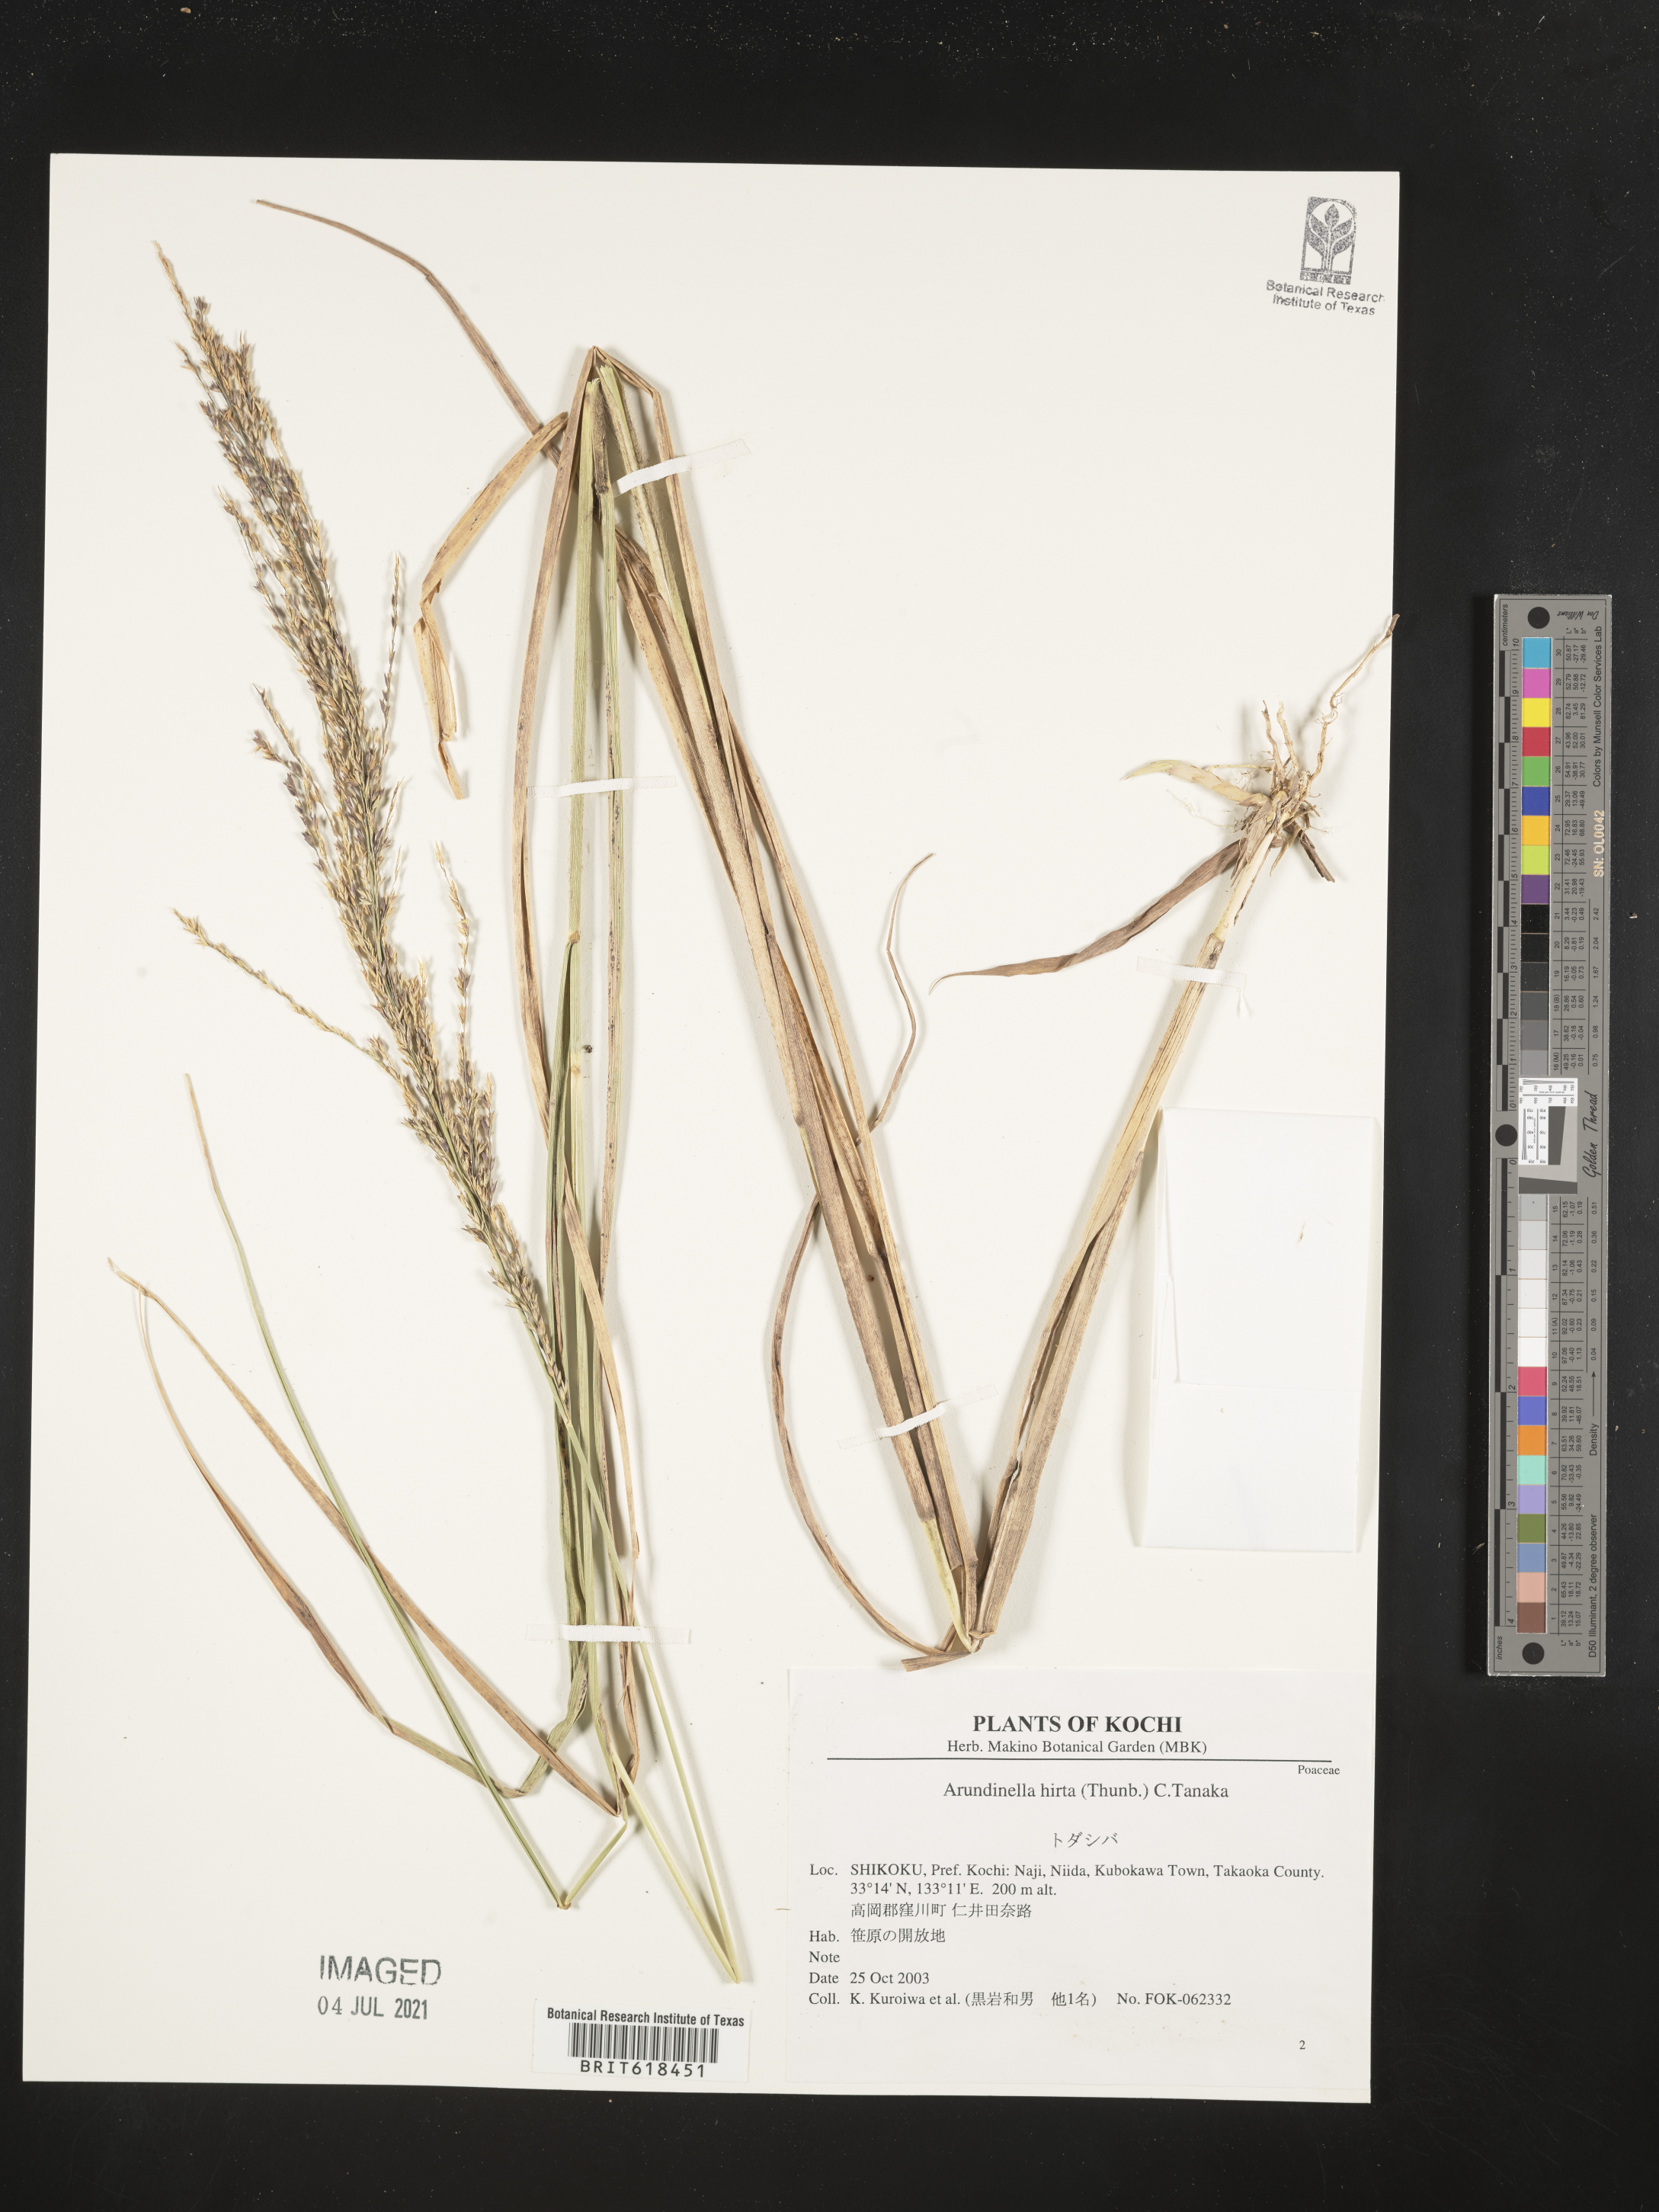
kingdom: Plantae
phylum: Tracheophyta
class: Liliopsida
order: Poales
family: Poaceae
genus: Arundinella
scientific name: Arundinella hirta
